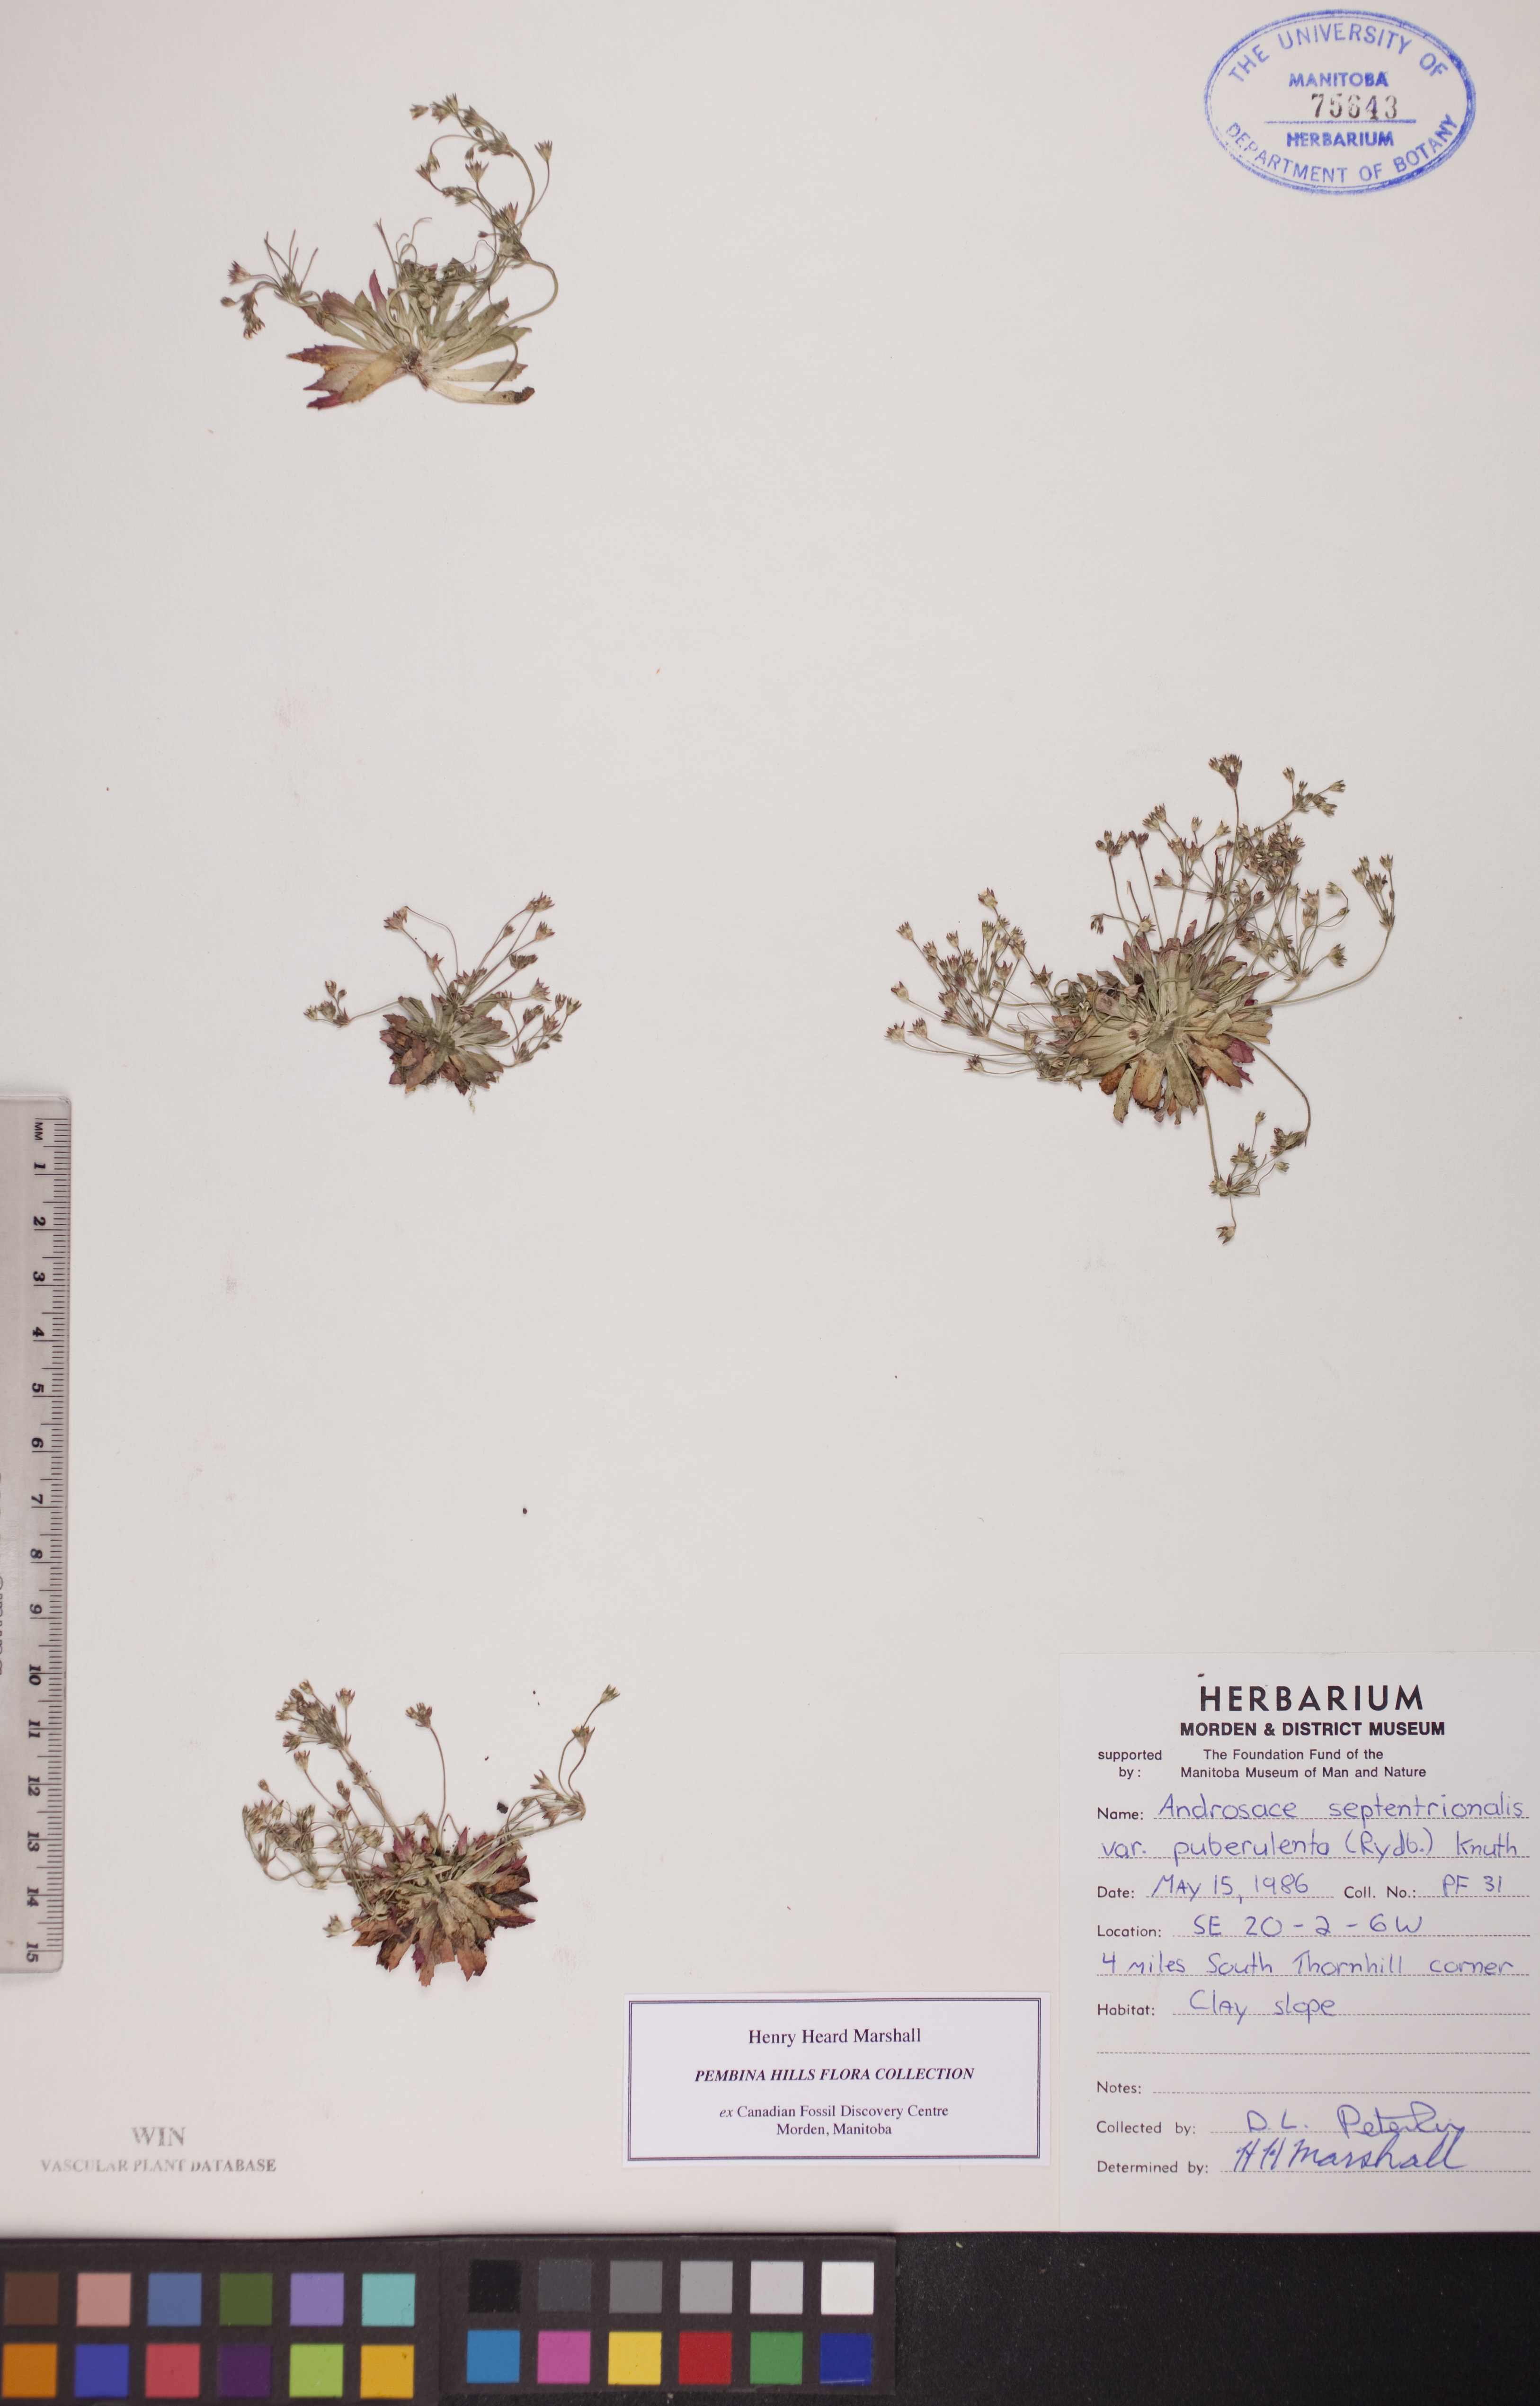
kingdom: Plantae
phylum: Tracheophyta
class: Magnoliopsida
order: Ericales
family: Primulaceae
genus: Androsace
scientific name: Androsace septentrionalis
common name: Hairy northern fairy-candelabra
